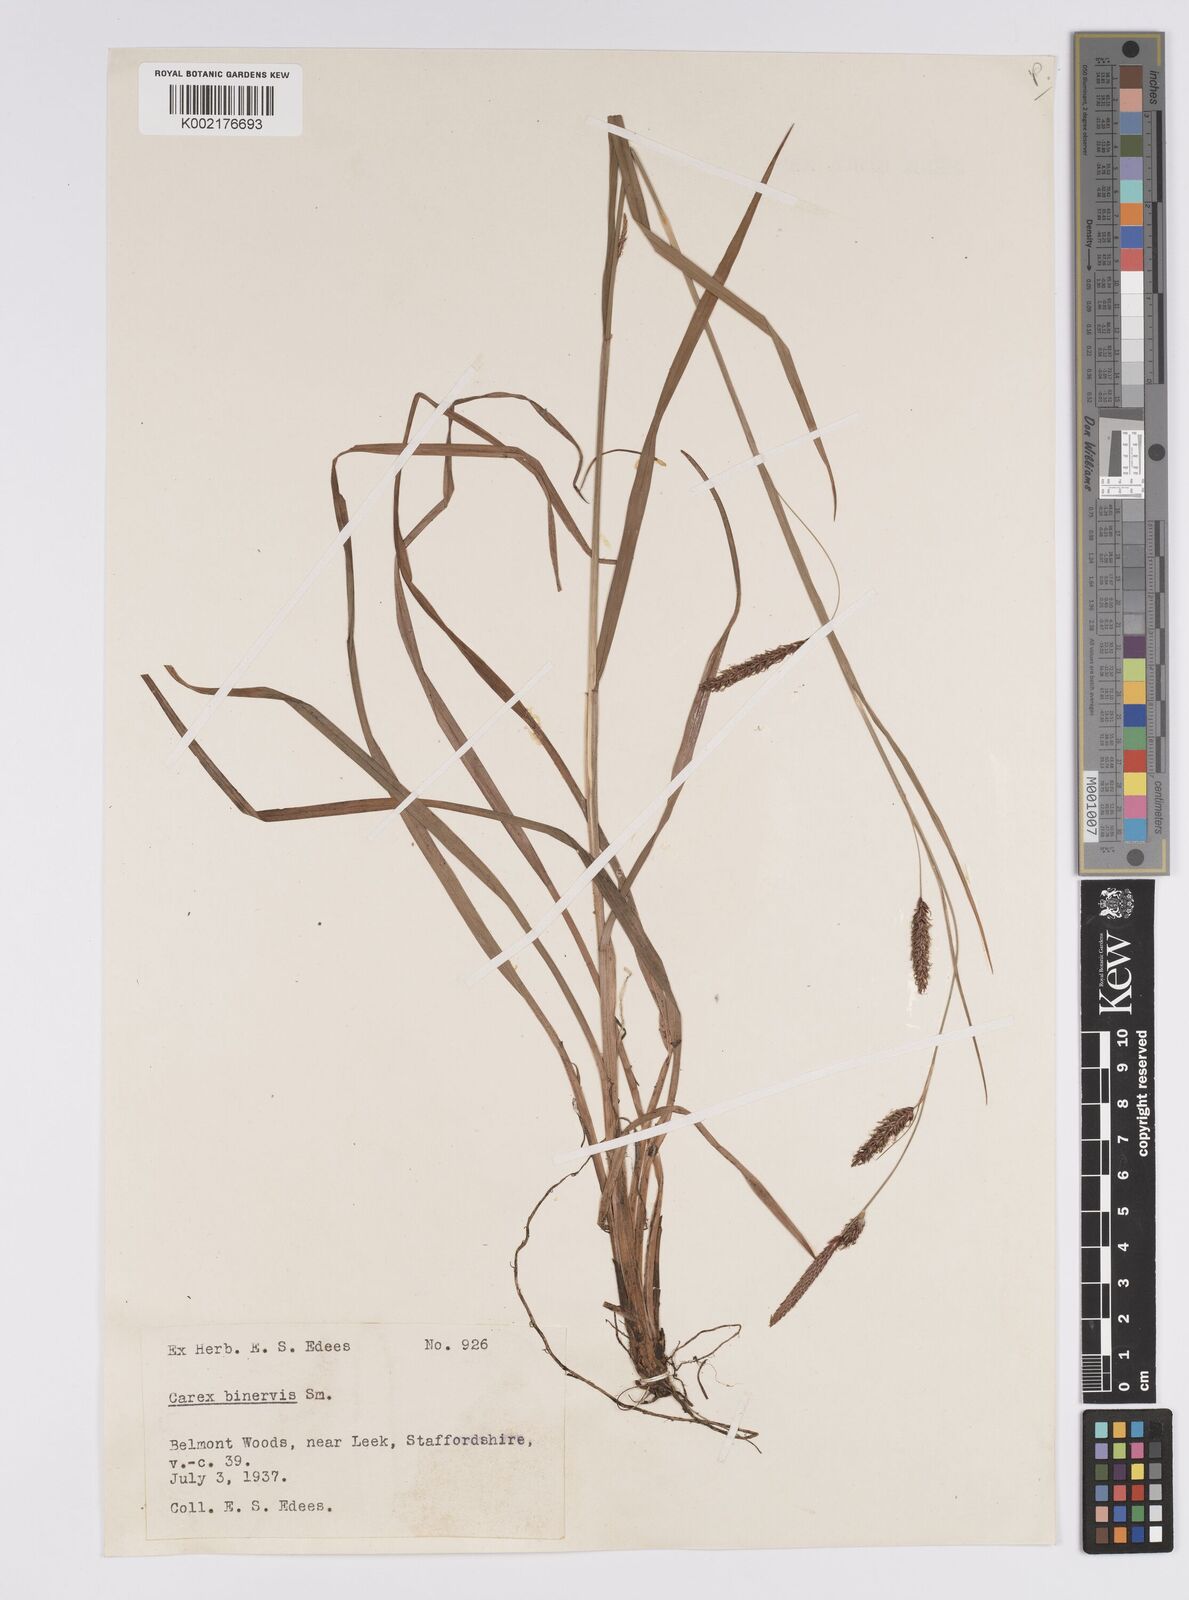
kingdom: Plantae
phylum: Tracheophyta
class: Liliopsida
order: Poales
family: Cyperaceae
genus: Carex
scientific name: Carex binervis
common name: Green-ribbed sedge
